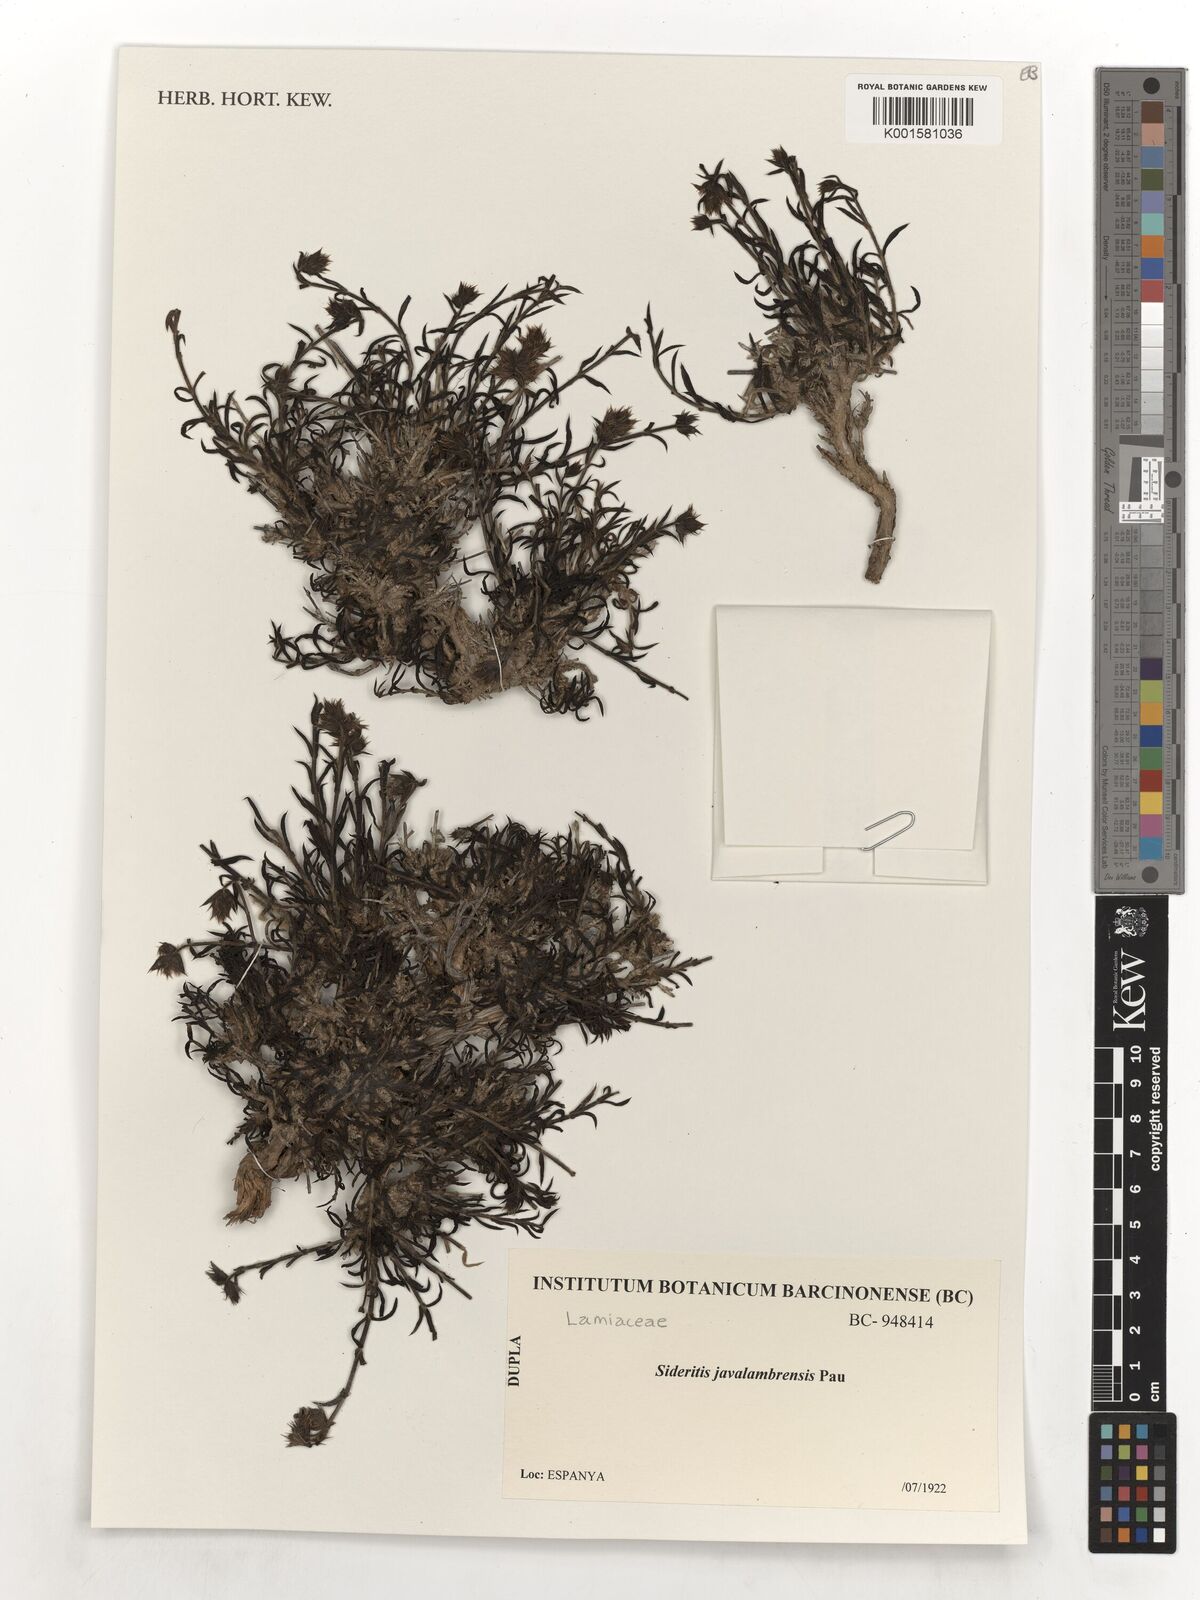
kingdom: Plantae
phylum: Tracheophyta
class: Magnoliopsida
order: Lamiales
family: Lamiaceae
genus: Sideritis
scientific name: Sideritis pungens
